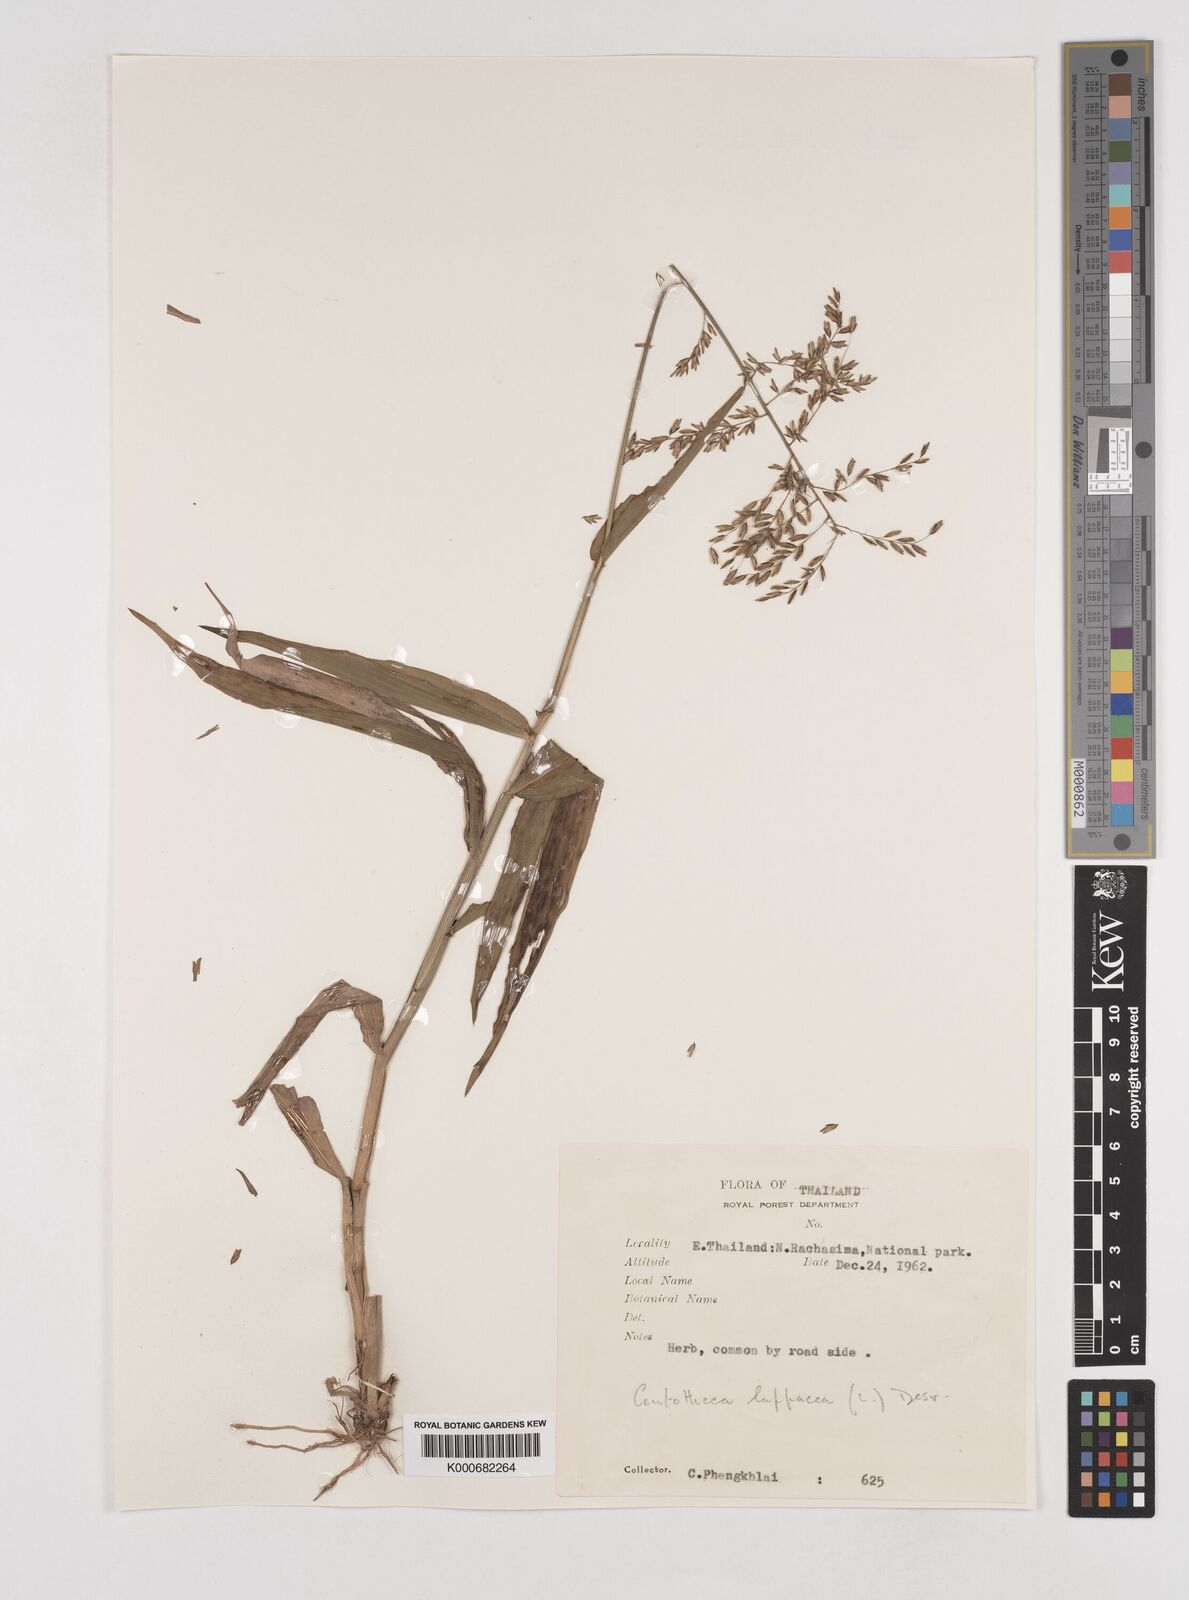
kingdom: Plantae
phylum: Tracheophyta
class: Liliopsida
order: Poales
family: Poaceae
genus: Centotheca
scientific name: Centotheca lappacea
